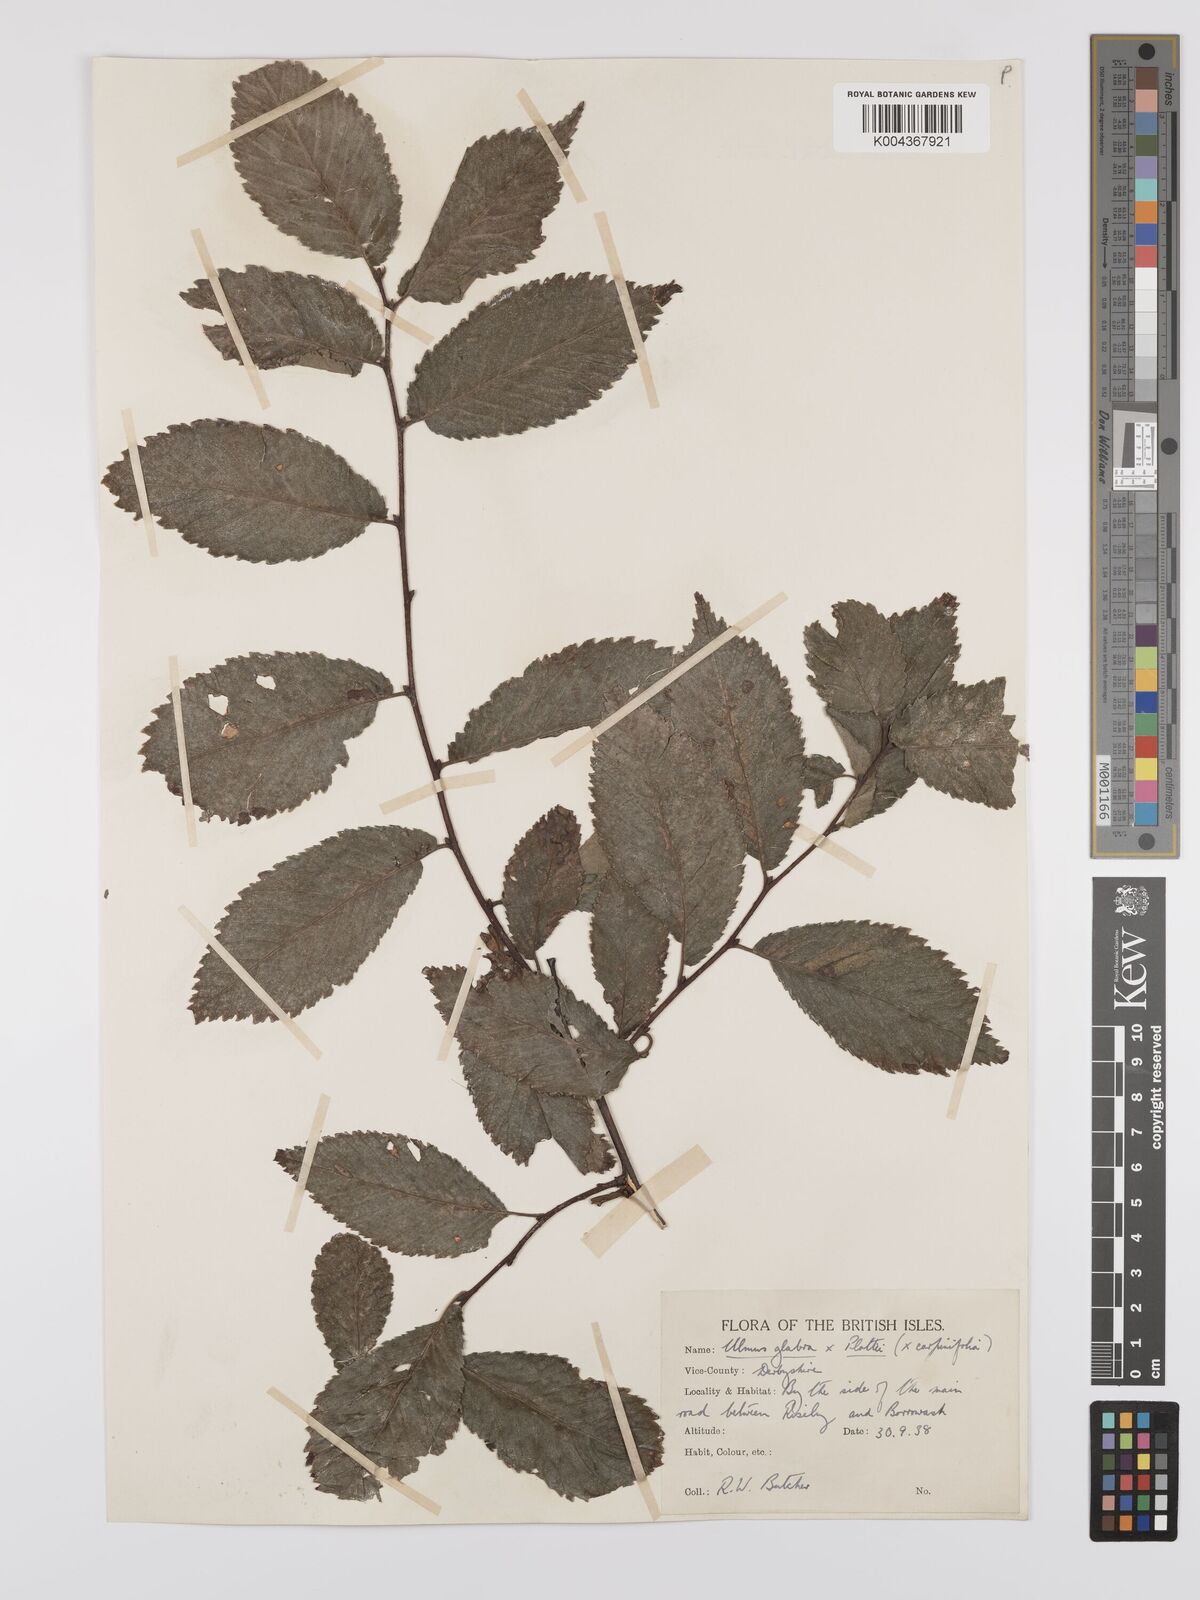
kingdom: Plantae
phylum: Tracheophyta
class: Magnoliopsida
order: Rosales
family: Ulmaceae
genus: Ulmus
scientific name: Ulmus
